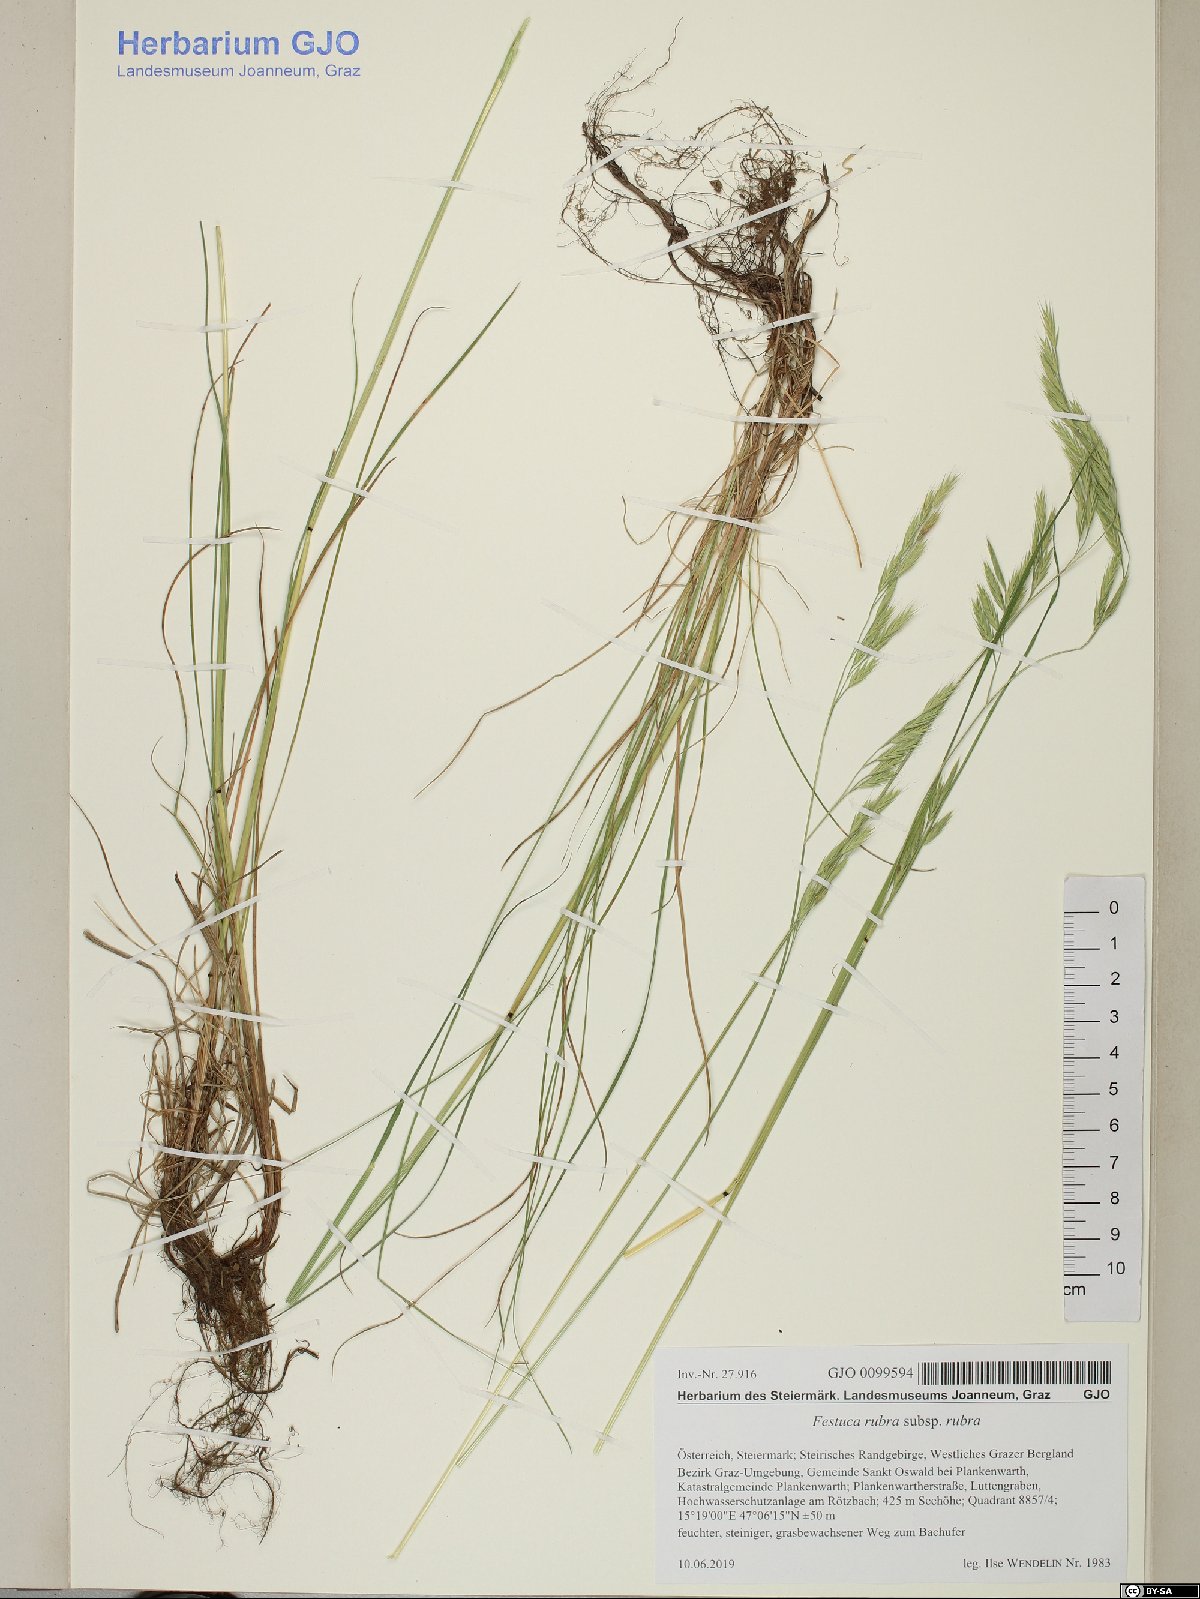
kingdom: Plantae
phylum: Tracheophyta
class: Liliopsida
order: Poales
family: Poaceae
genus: Festuca
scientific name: Festuca rubra
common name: Red fescue
